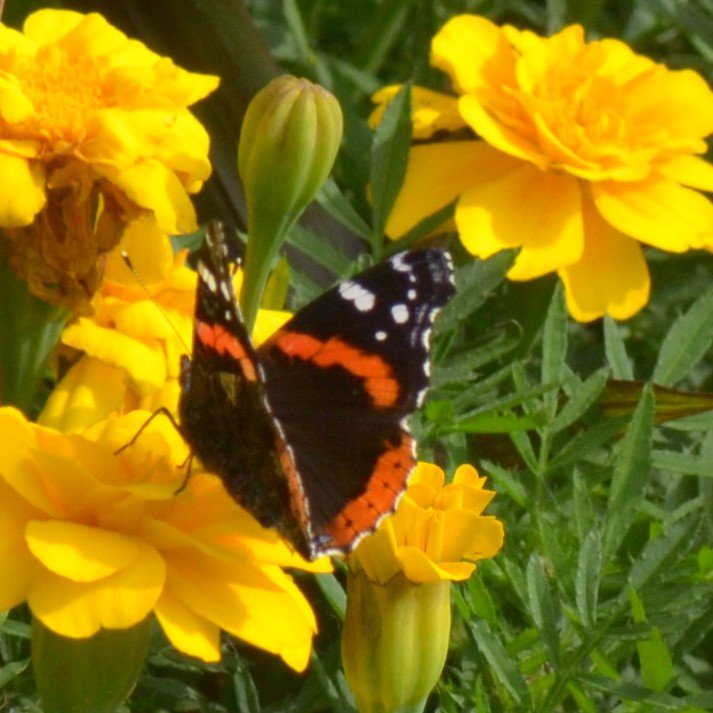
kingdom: Animalia
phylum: Arthropoda
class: Insecta
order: Lepidoptera
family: Nymphalidae
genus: Vanessa
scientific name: Vanessa atalanta
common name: Red Admiral
